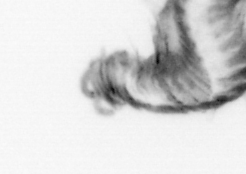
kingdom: Animalia
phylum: Annelida
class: Polychaeta
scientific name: Polychaeta
